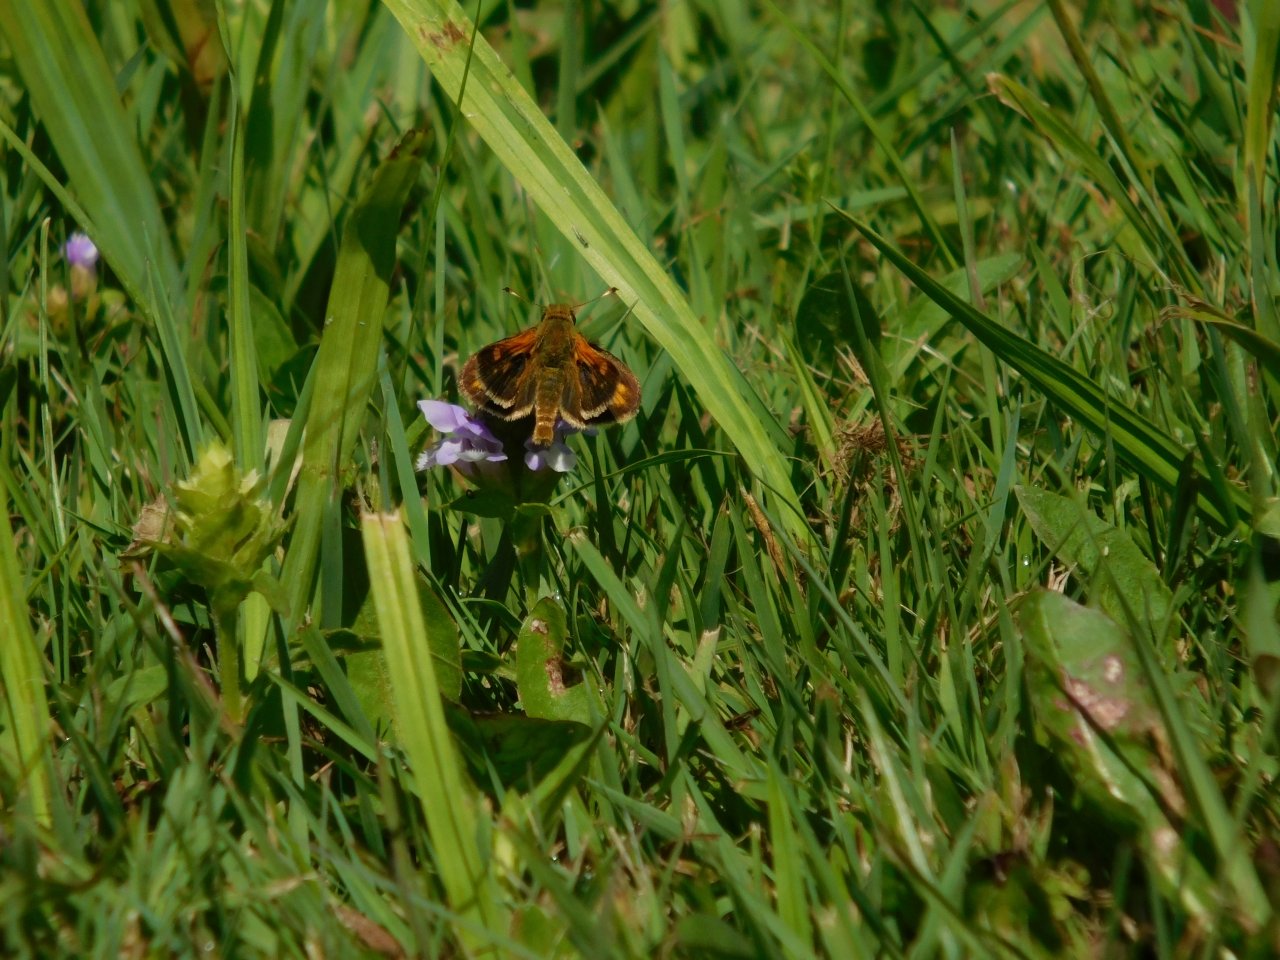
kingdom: Animalia
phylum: Arthropoda
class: Insecta
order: Lepidoptera
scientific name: Lepidoptera
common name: Butterflies
